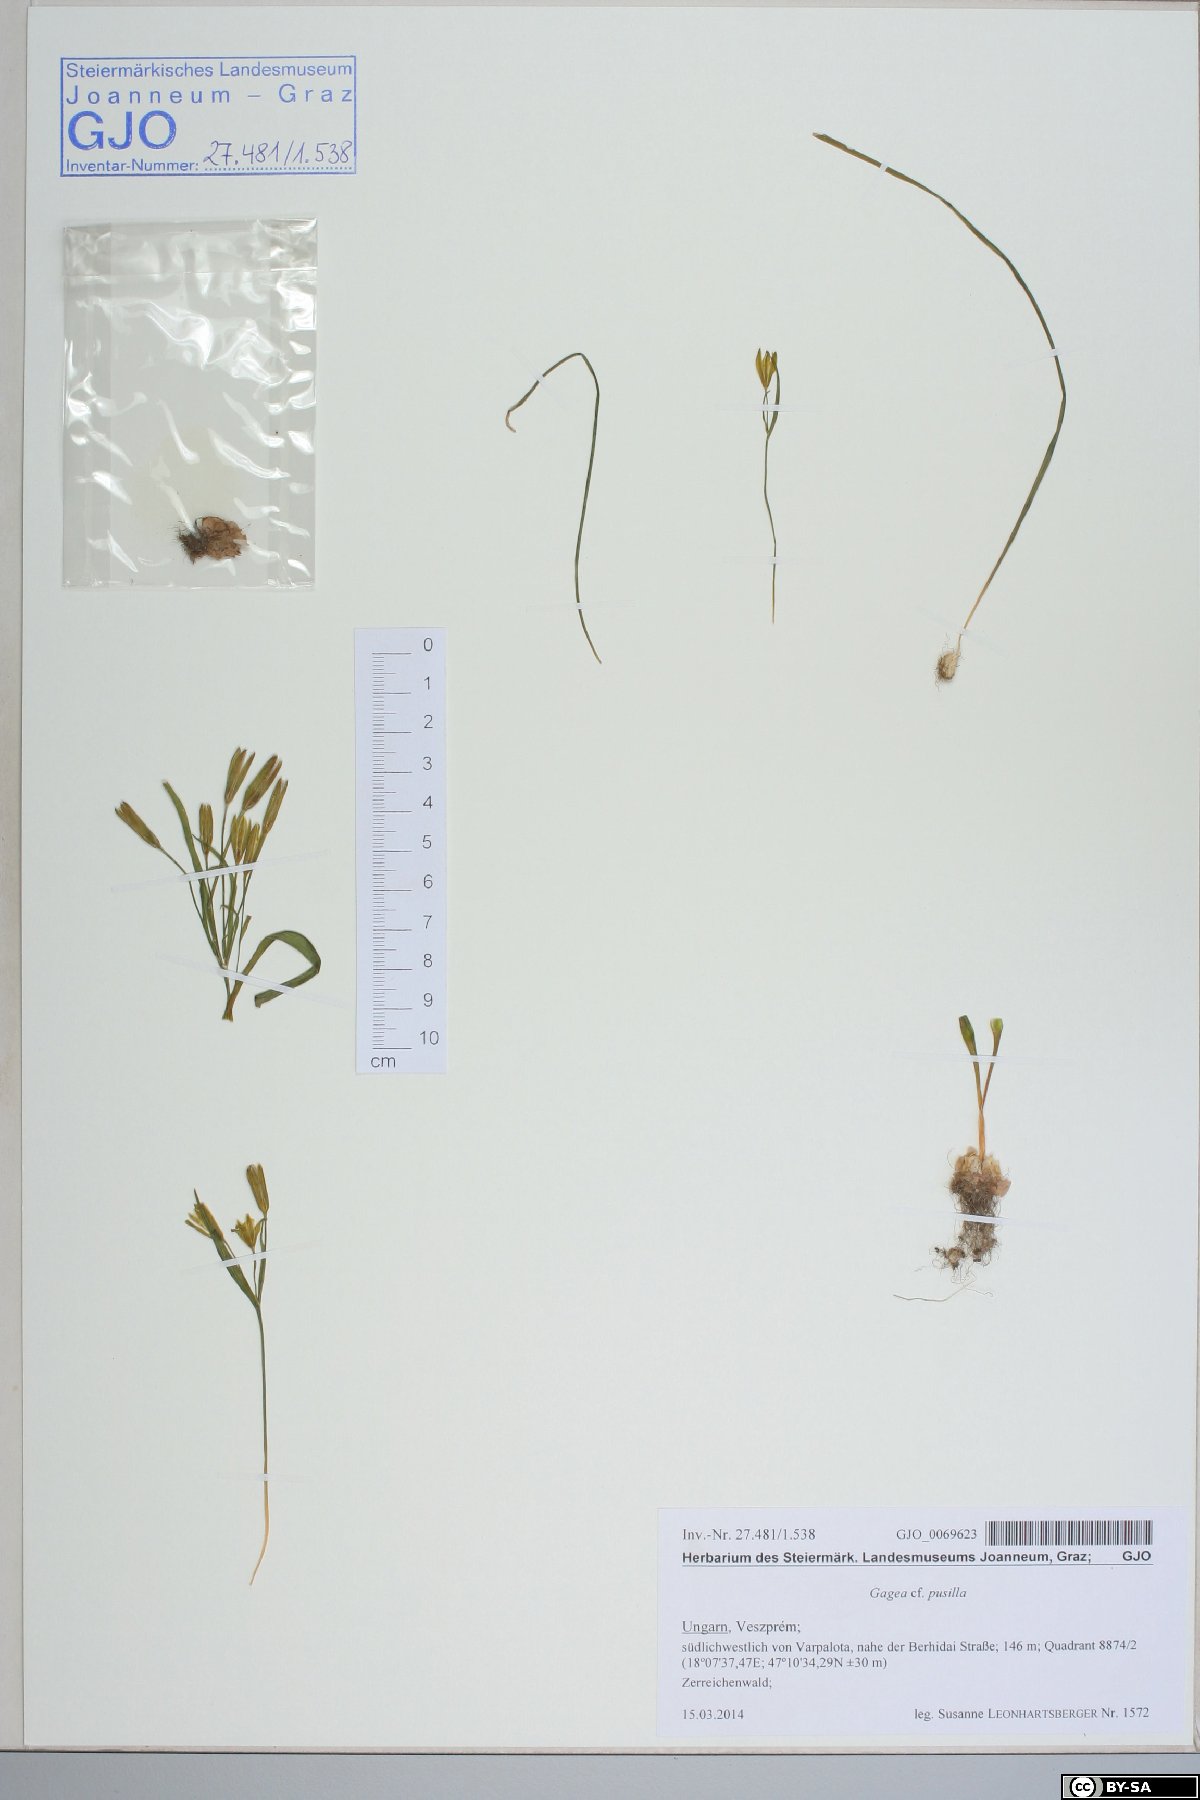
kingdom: Plantae
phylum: Tracheophyta
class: Liliopsida
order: Liliales
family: Liliaceae
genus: Gagea
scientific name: Gagea pusilla
